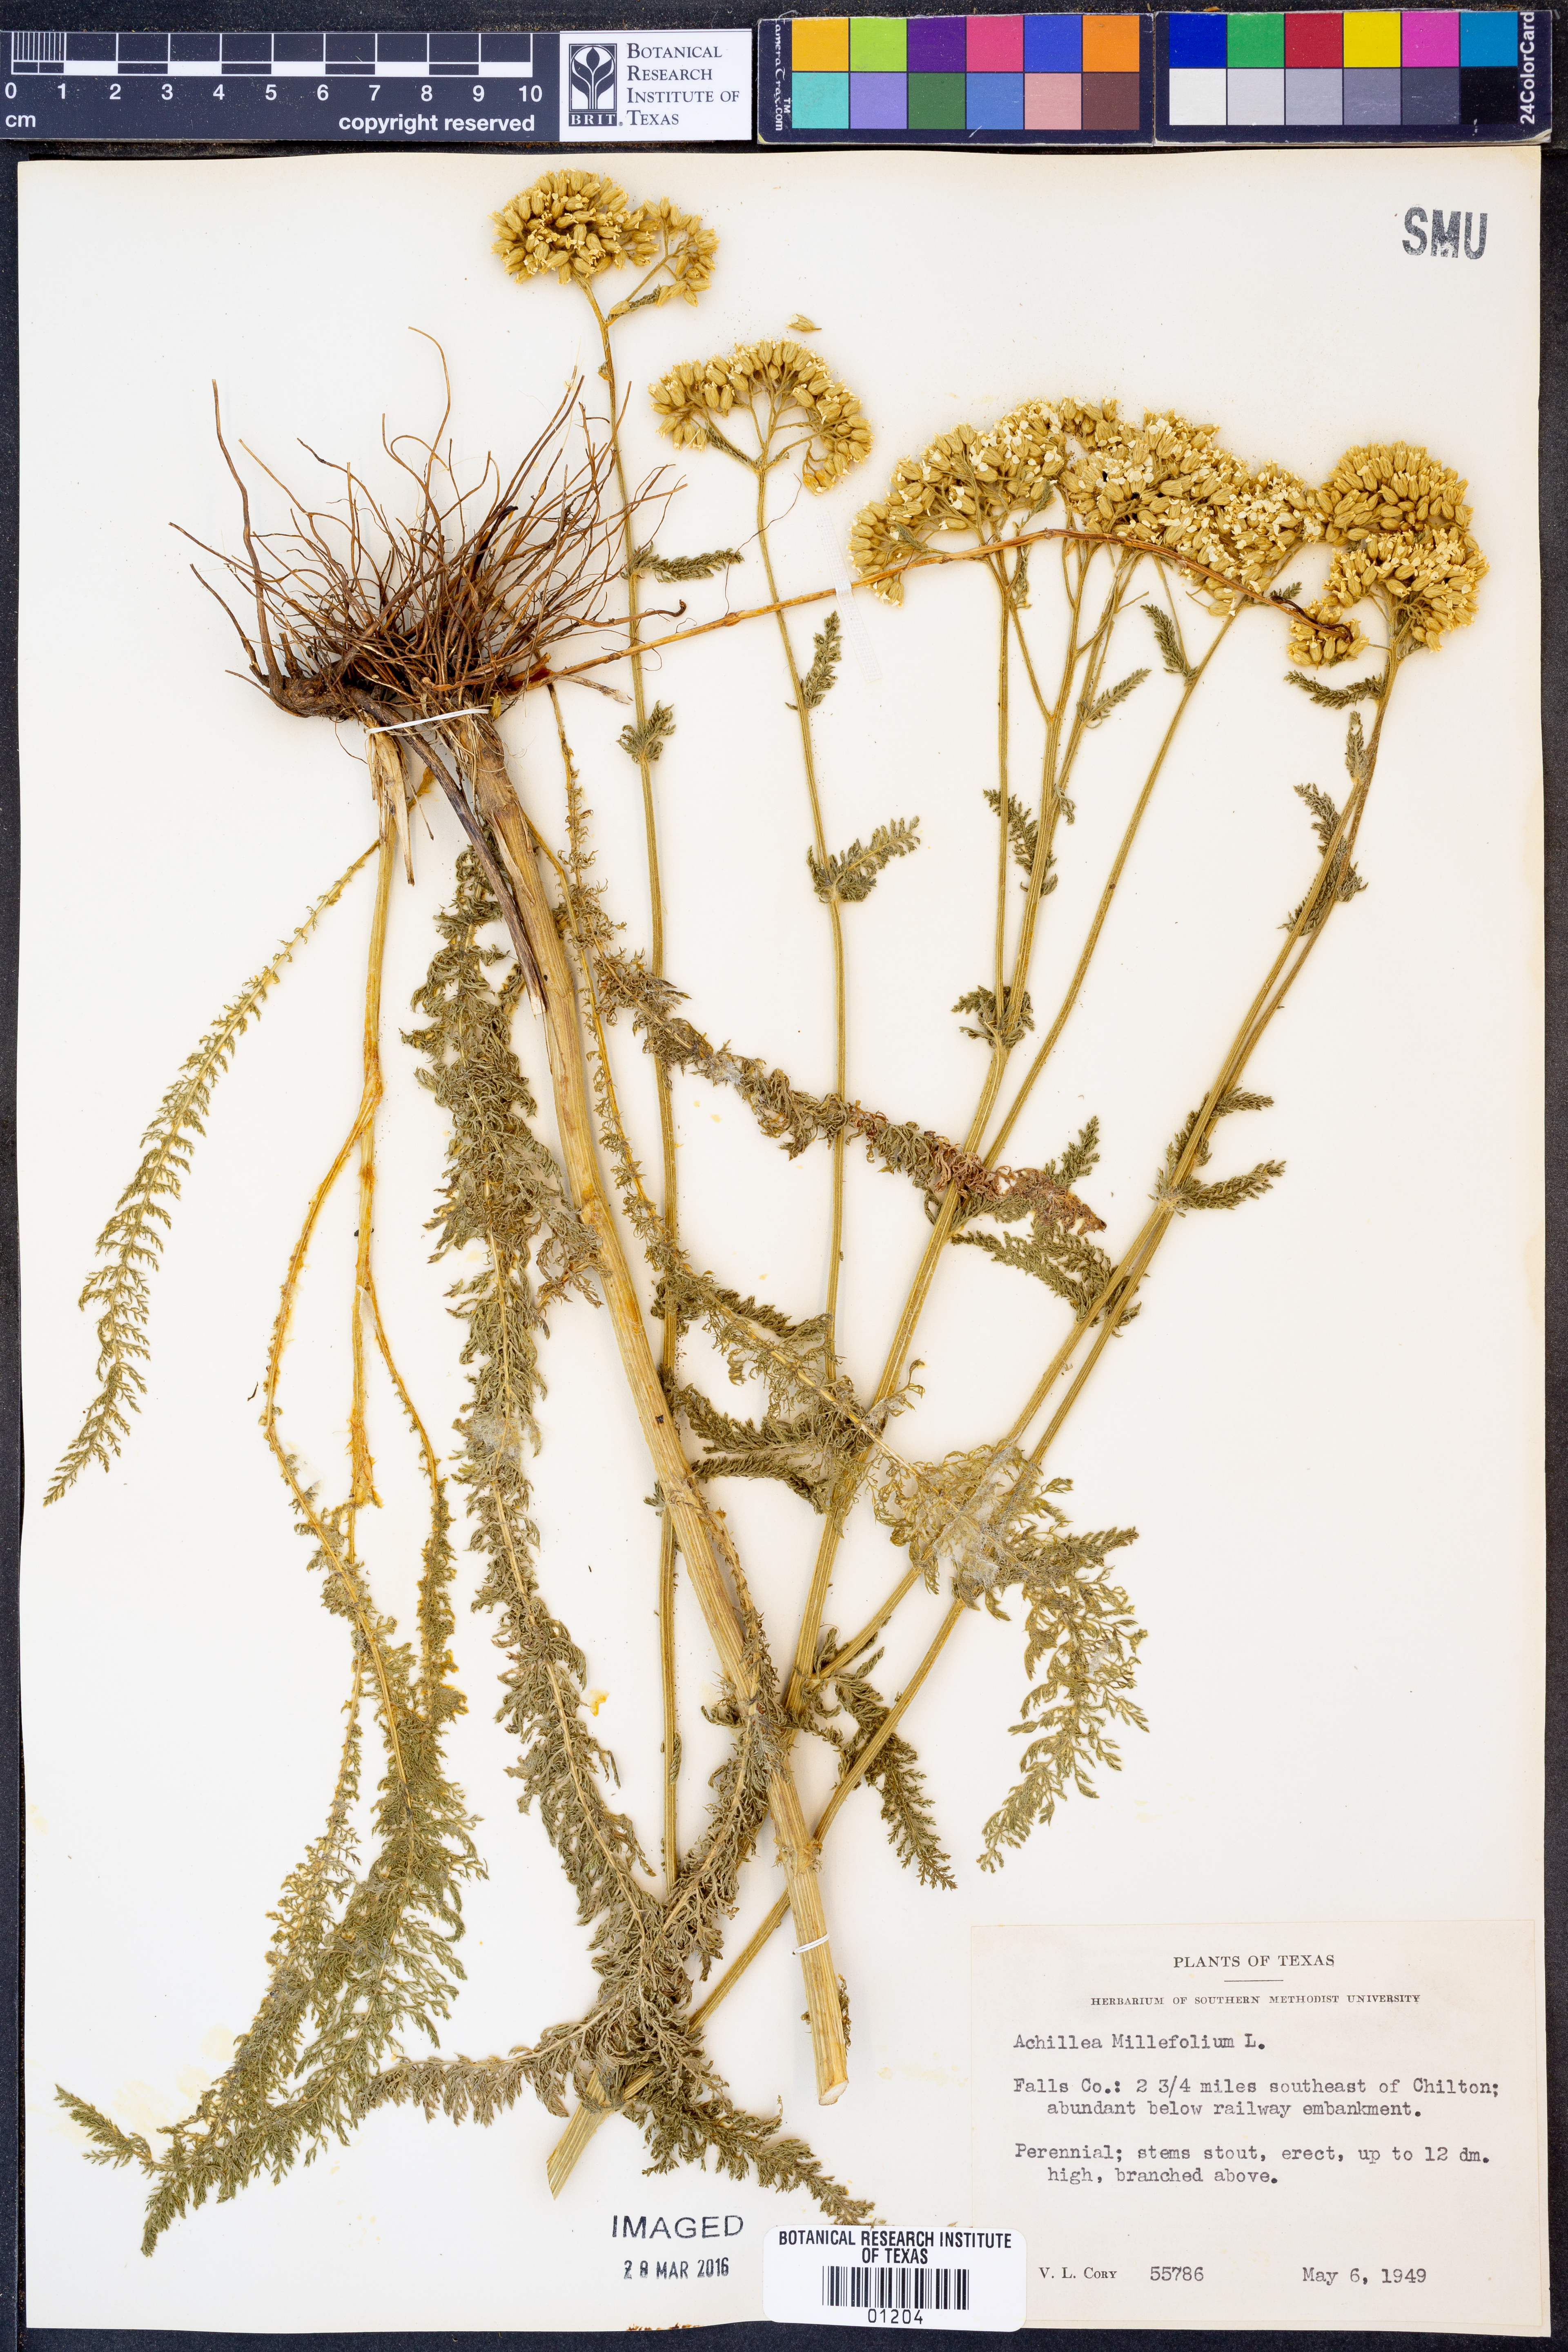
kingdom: Plantae
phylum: Tracheophyta
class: Magnoliopsida
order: Asterales
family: Asteraceae
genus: Achillea
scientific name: Achillea millefolium
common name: Yarrow
